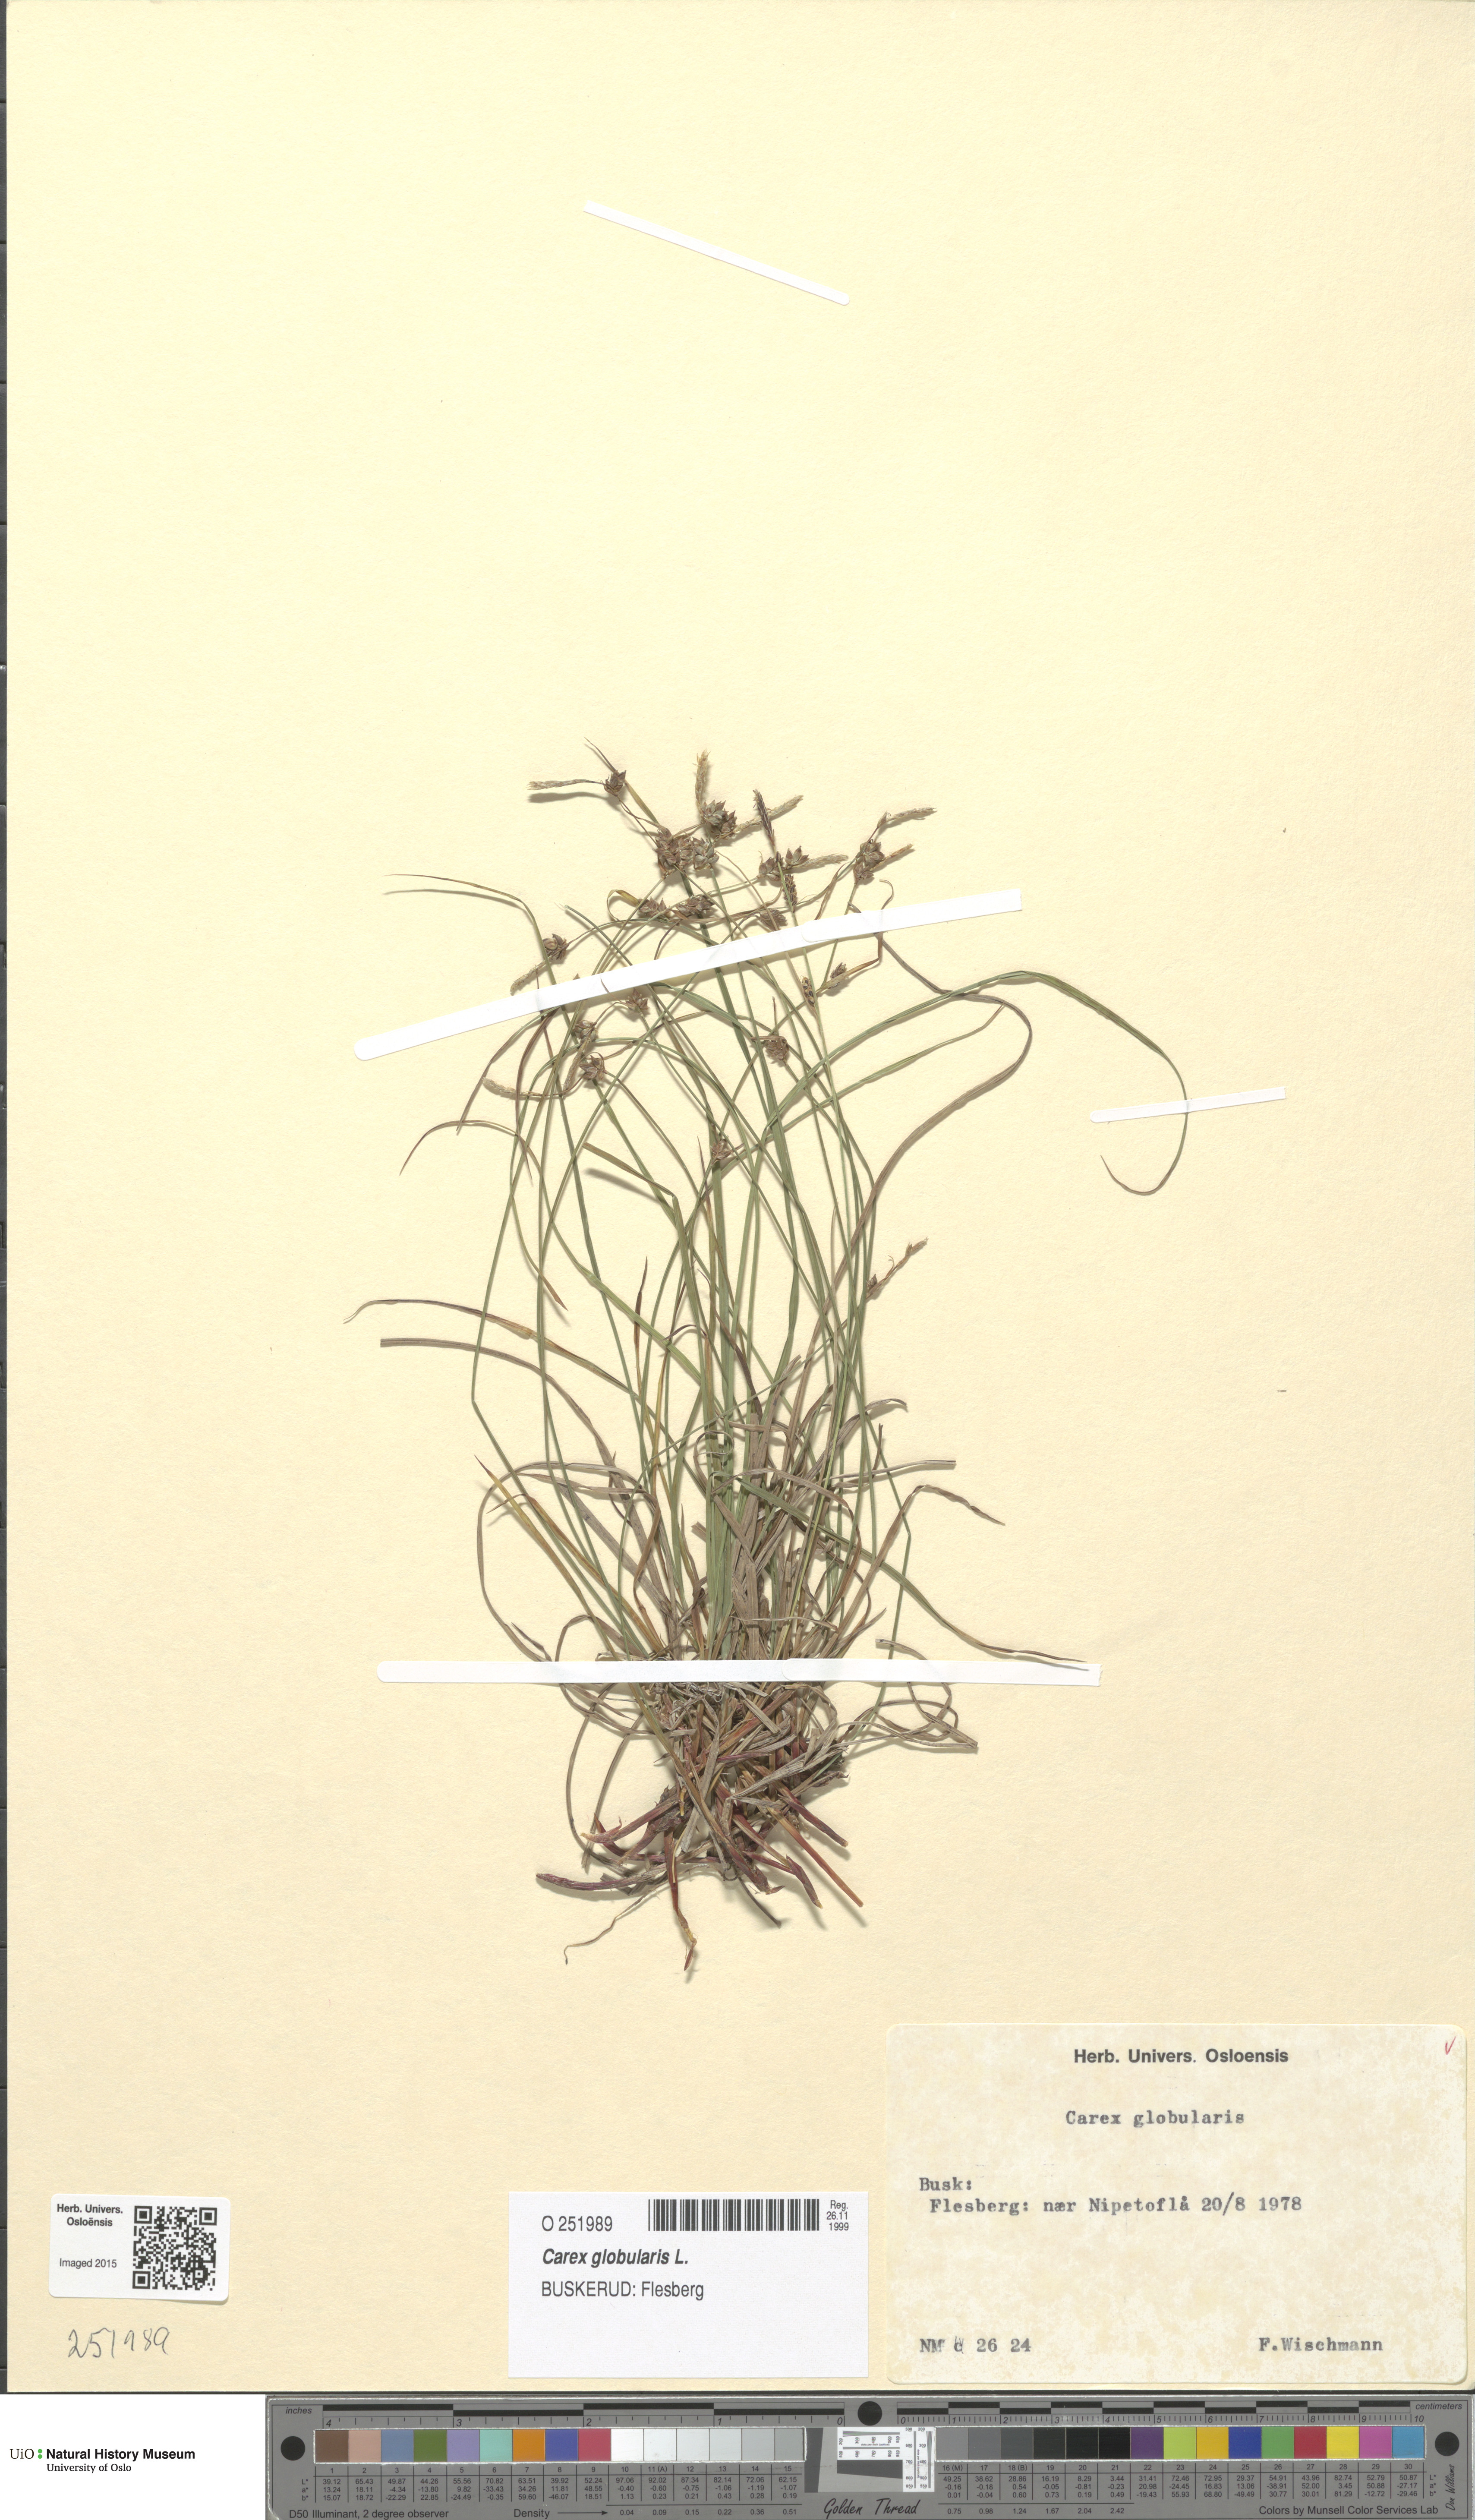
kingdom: Plantae
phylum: Tracheophyta
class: Liliopsida
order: Poales
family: Cyperaceae
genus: Carex
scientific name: Carex globularis
